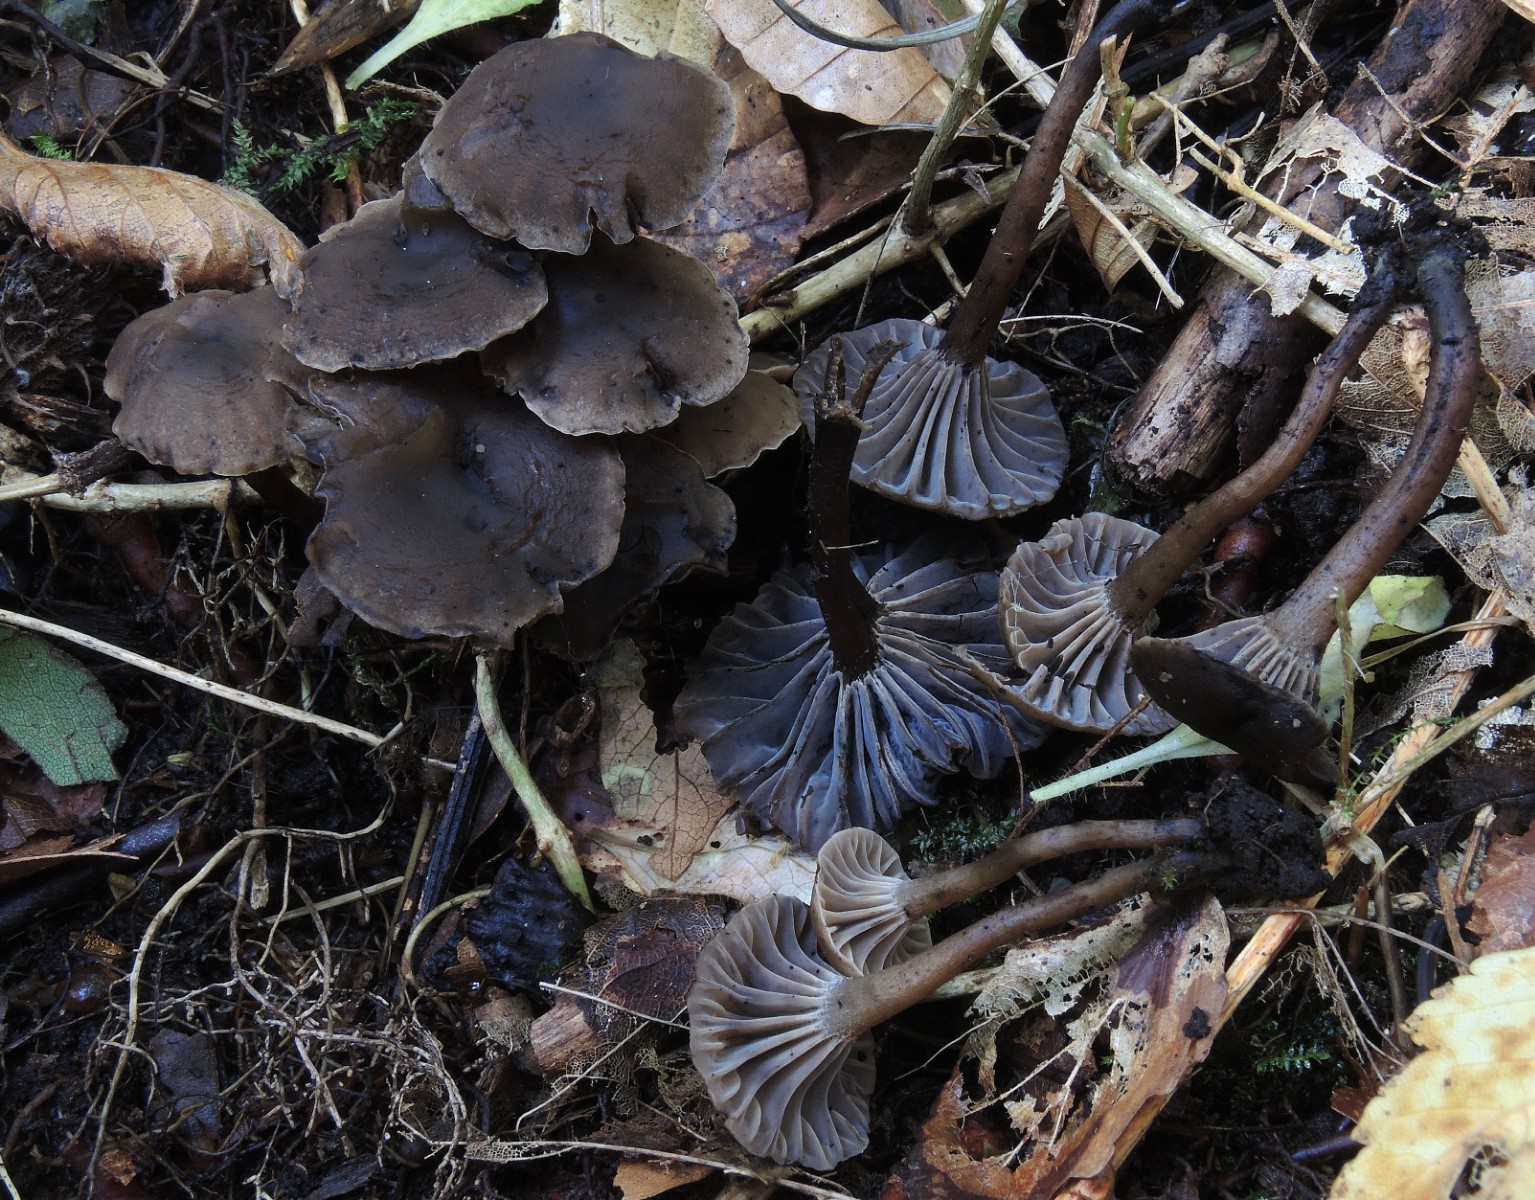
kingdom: Fungi
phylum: Basidiomycota
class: Agaricomycetes
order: Agaricales
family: Clavariaceae
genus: Hodophilus
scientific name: Hodophilus foetens
